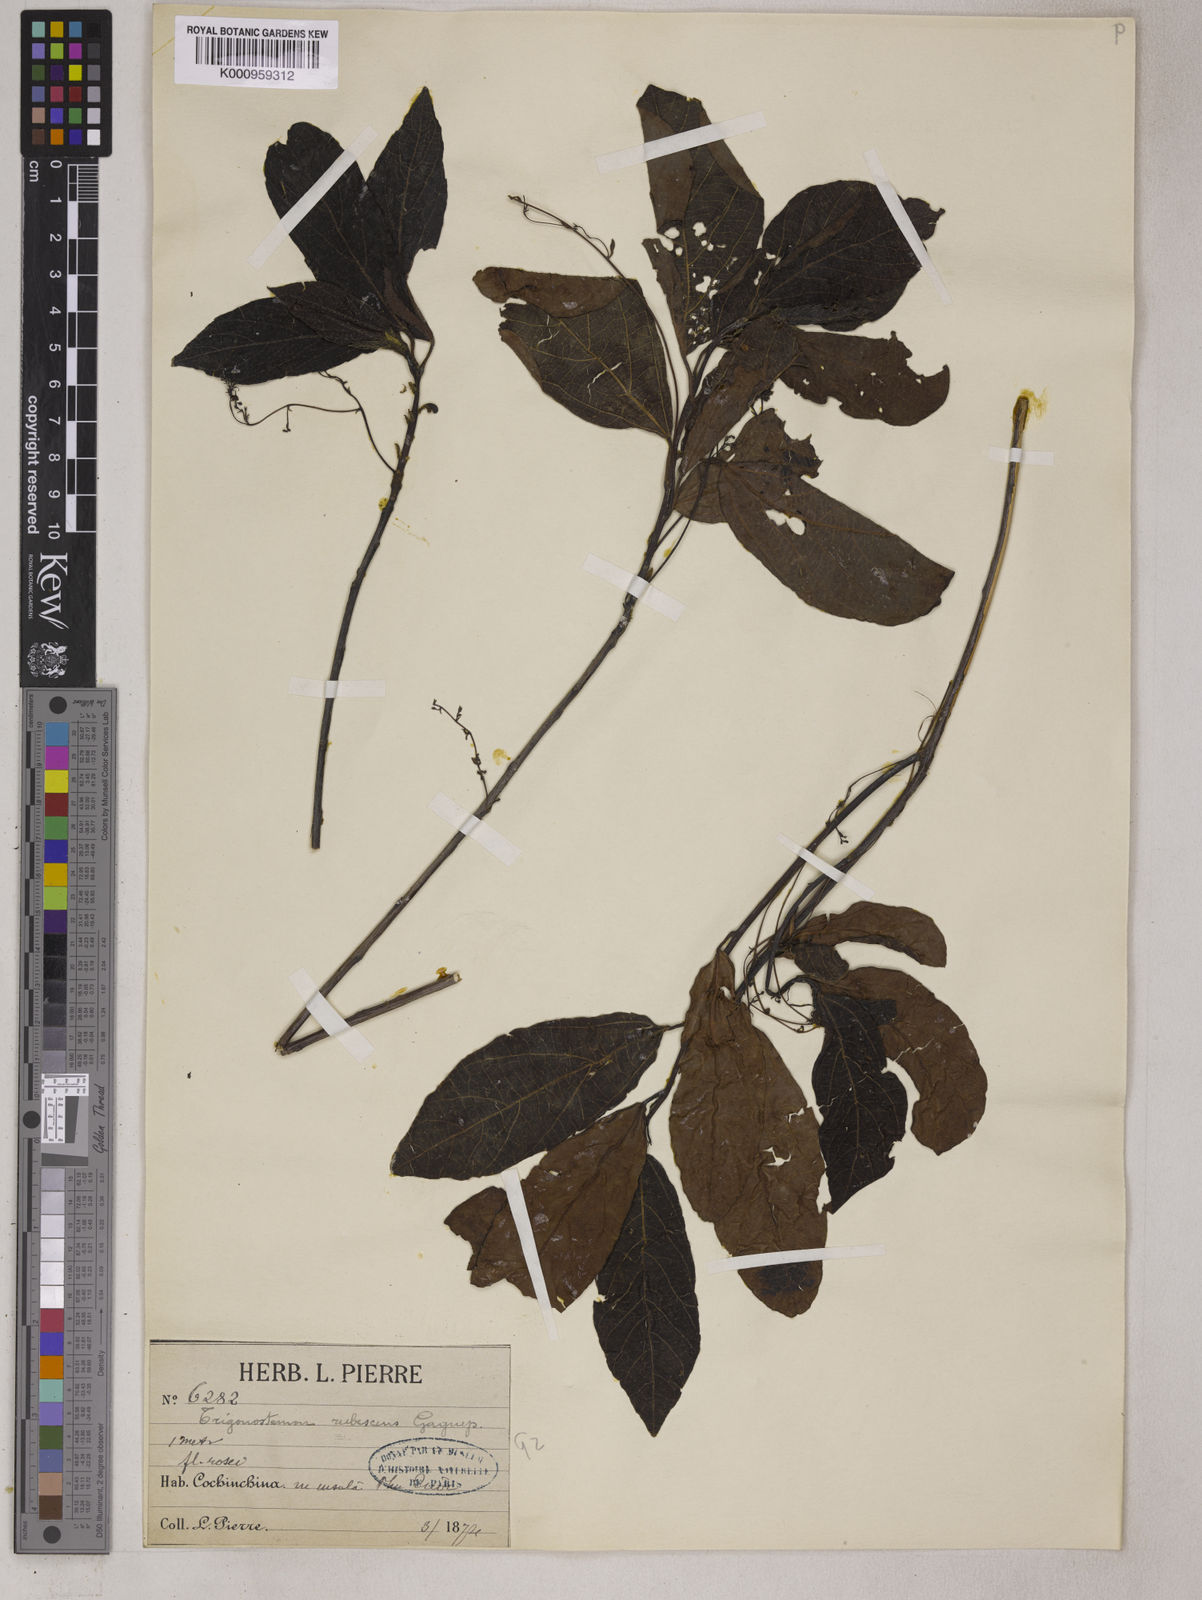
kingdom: Plantae
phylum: Tracheophyta
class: Magnoliopsida
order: Malpighiales
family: Euphorbiaceae
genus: Trigonostemon
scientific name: Trigonostemon reidioides
